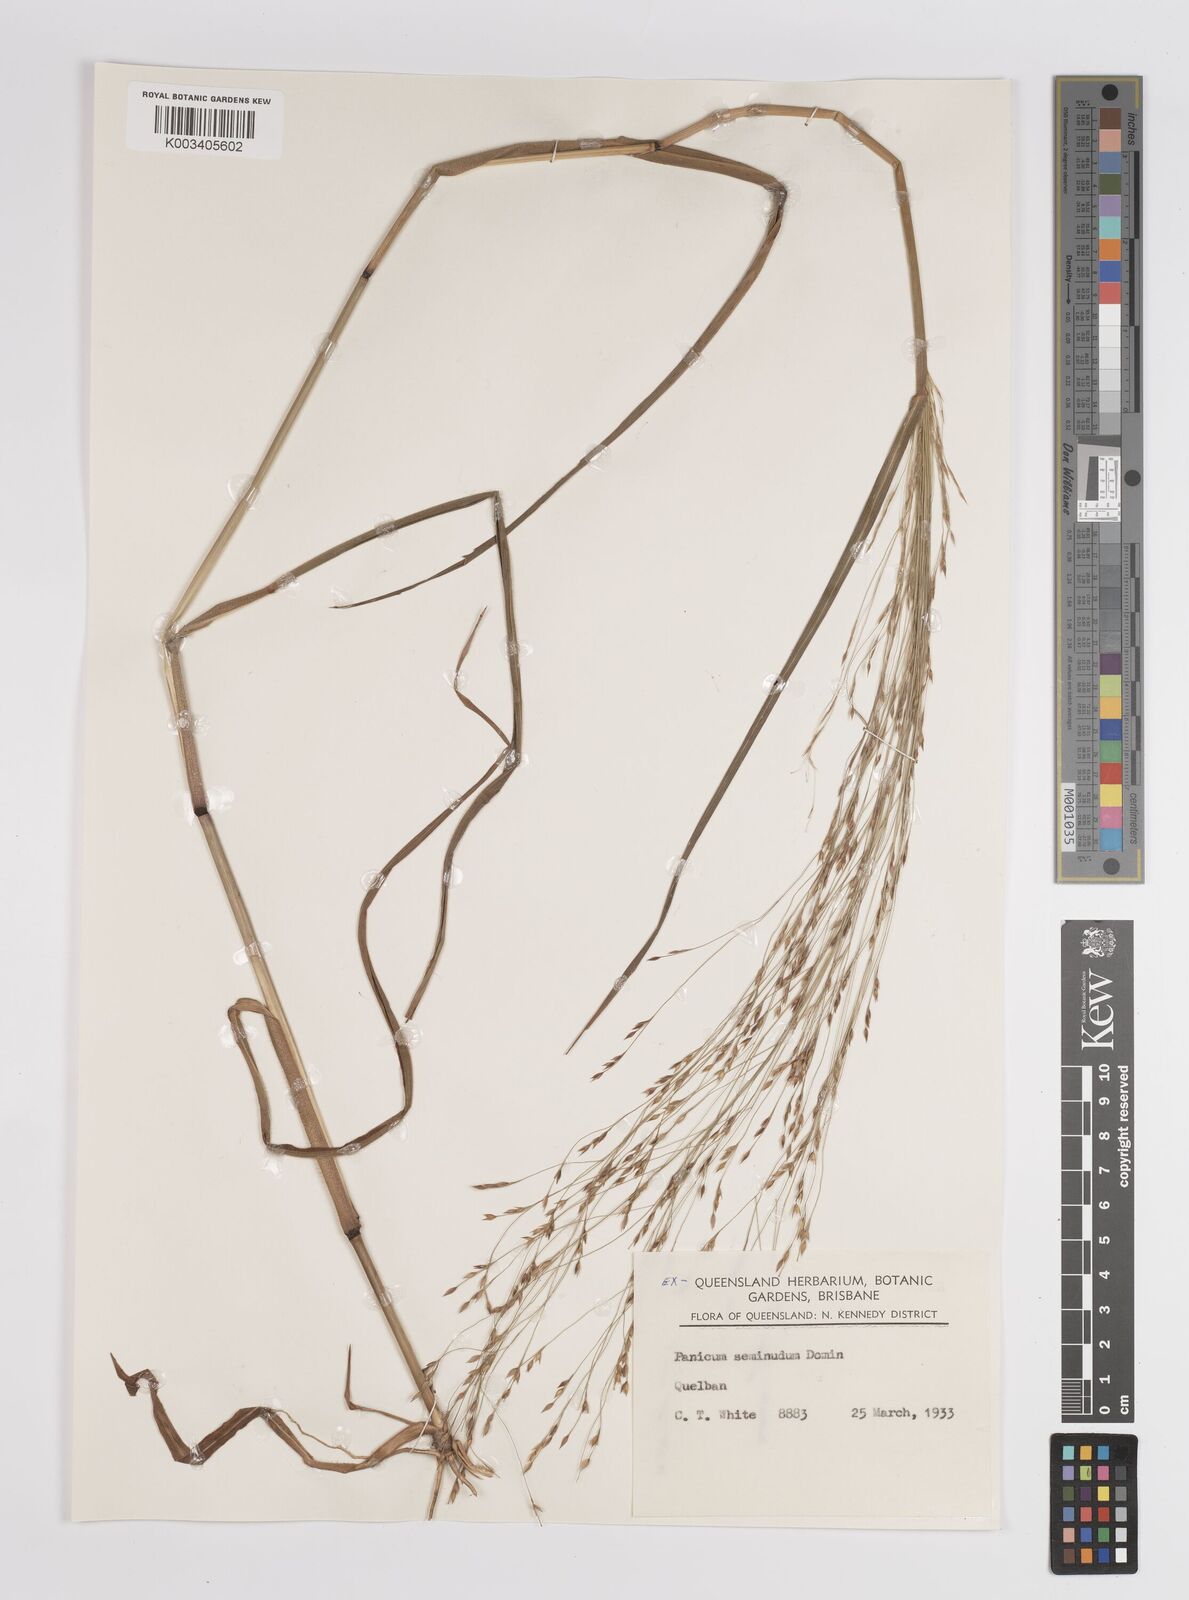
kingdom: Plantae
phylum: Tracheophyta
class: Liliopsida
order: Poales
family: Poaceae
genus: Panicum
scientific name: Panicum
